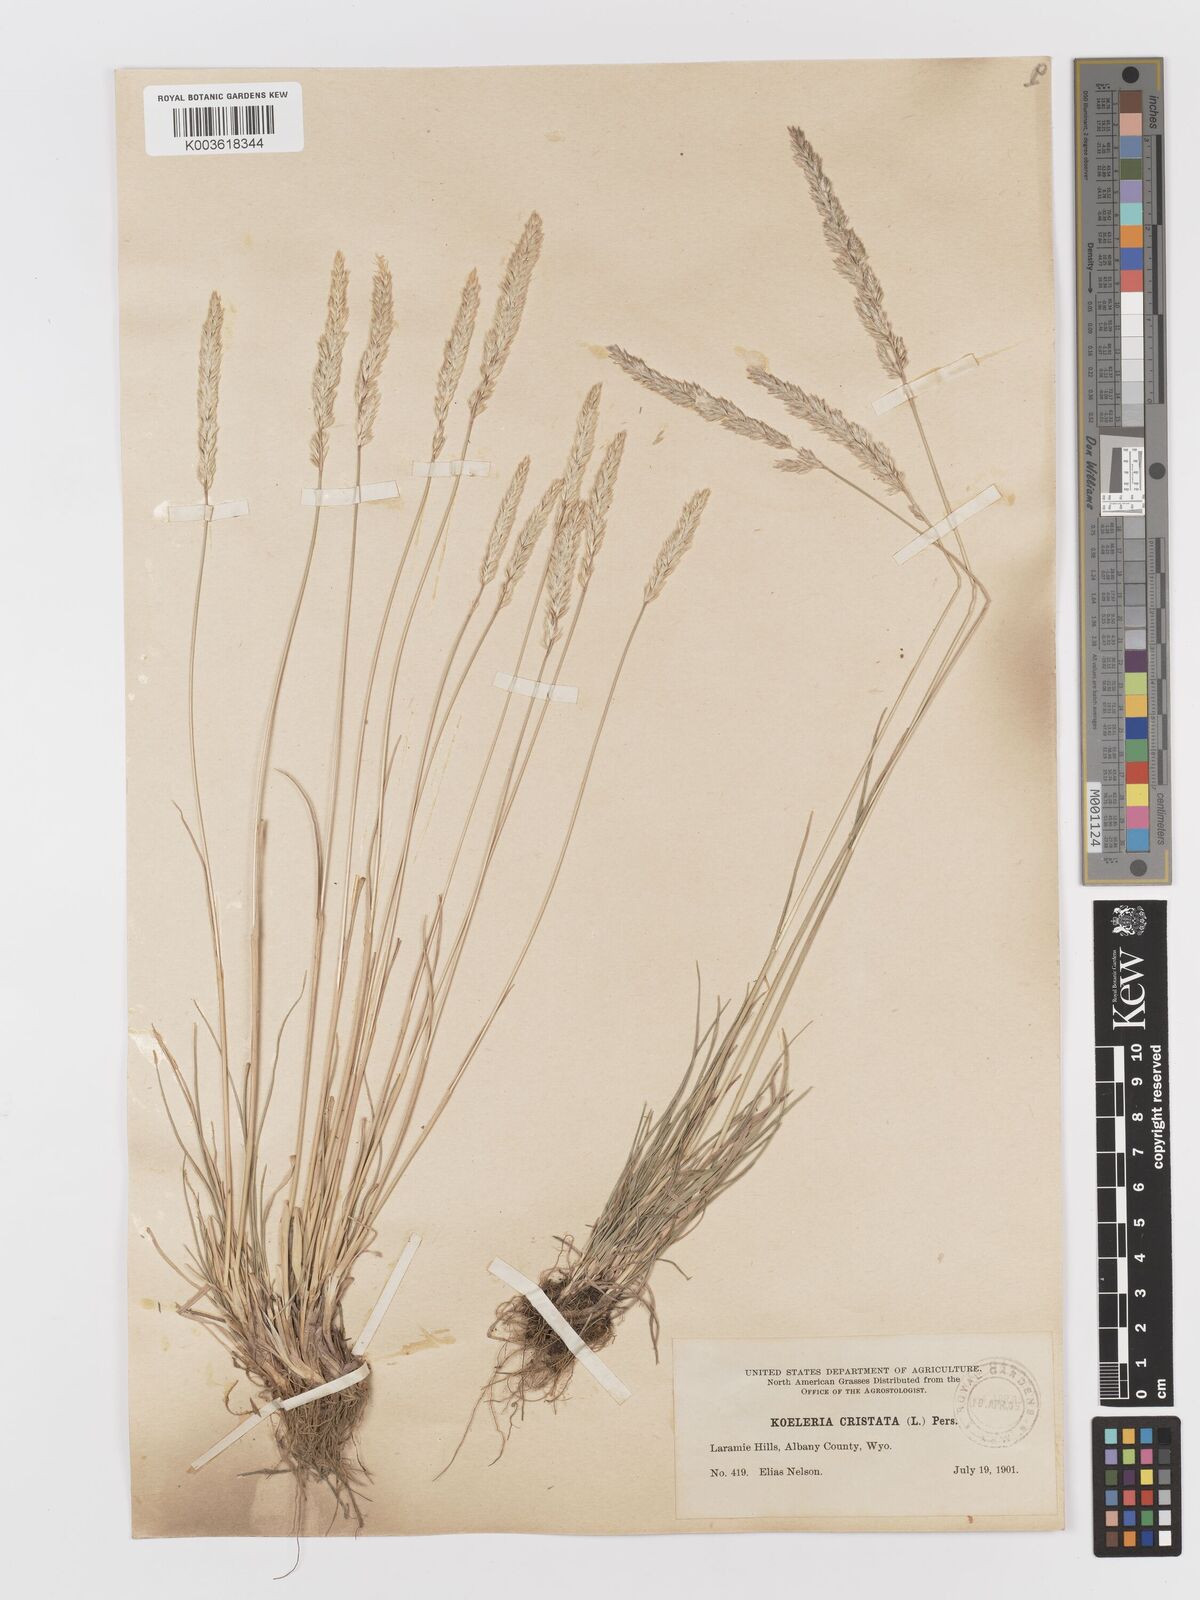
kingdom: Plantae
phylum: Tracheophyta
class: Liliopsida
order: Poales
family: Poaceae
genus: Koeleria
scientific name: Koeleria
